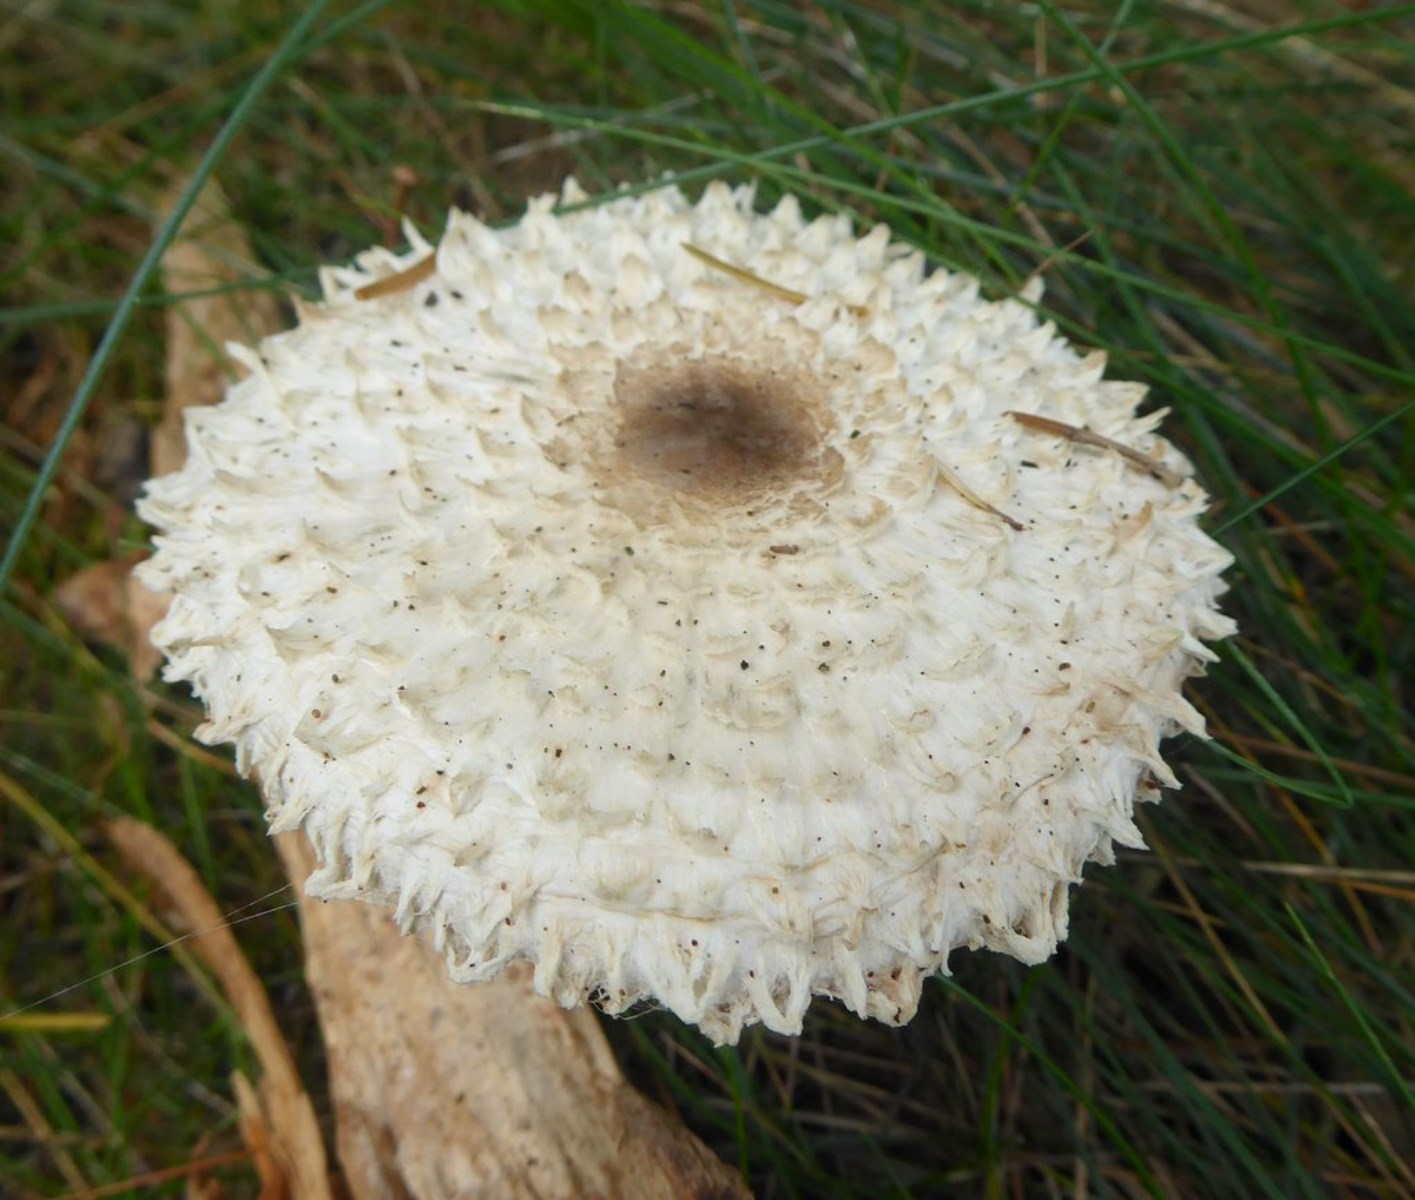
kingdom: Fungi
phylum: Basidiomycota
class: Agaricomycetes
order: Agaricales
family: Agaricaceae
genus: Leucoagaricus
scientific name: Leucoagaricus nympharum
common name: gran-silkehat
